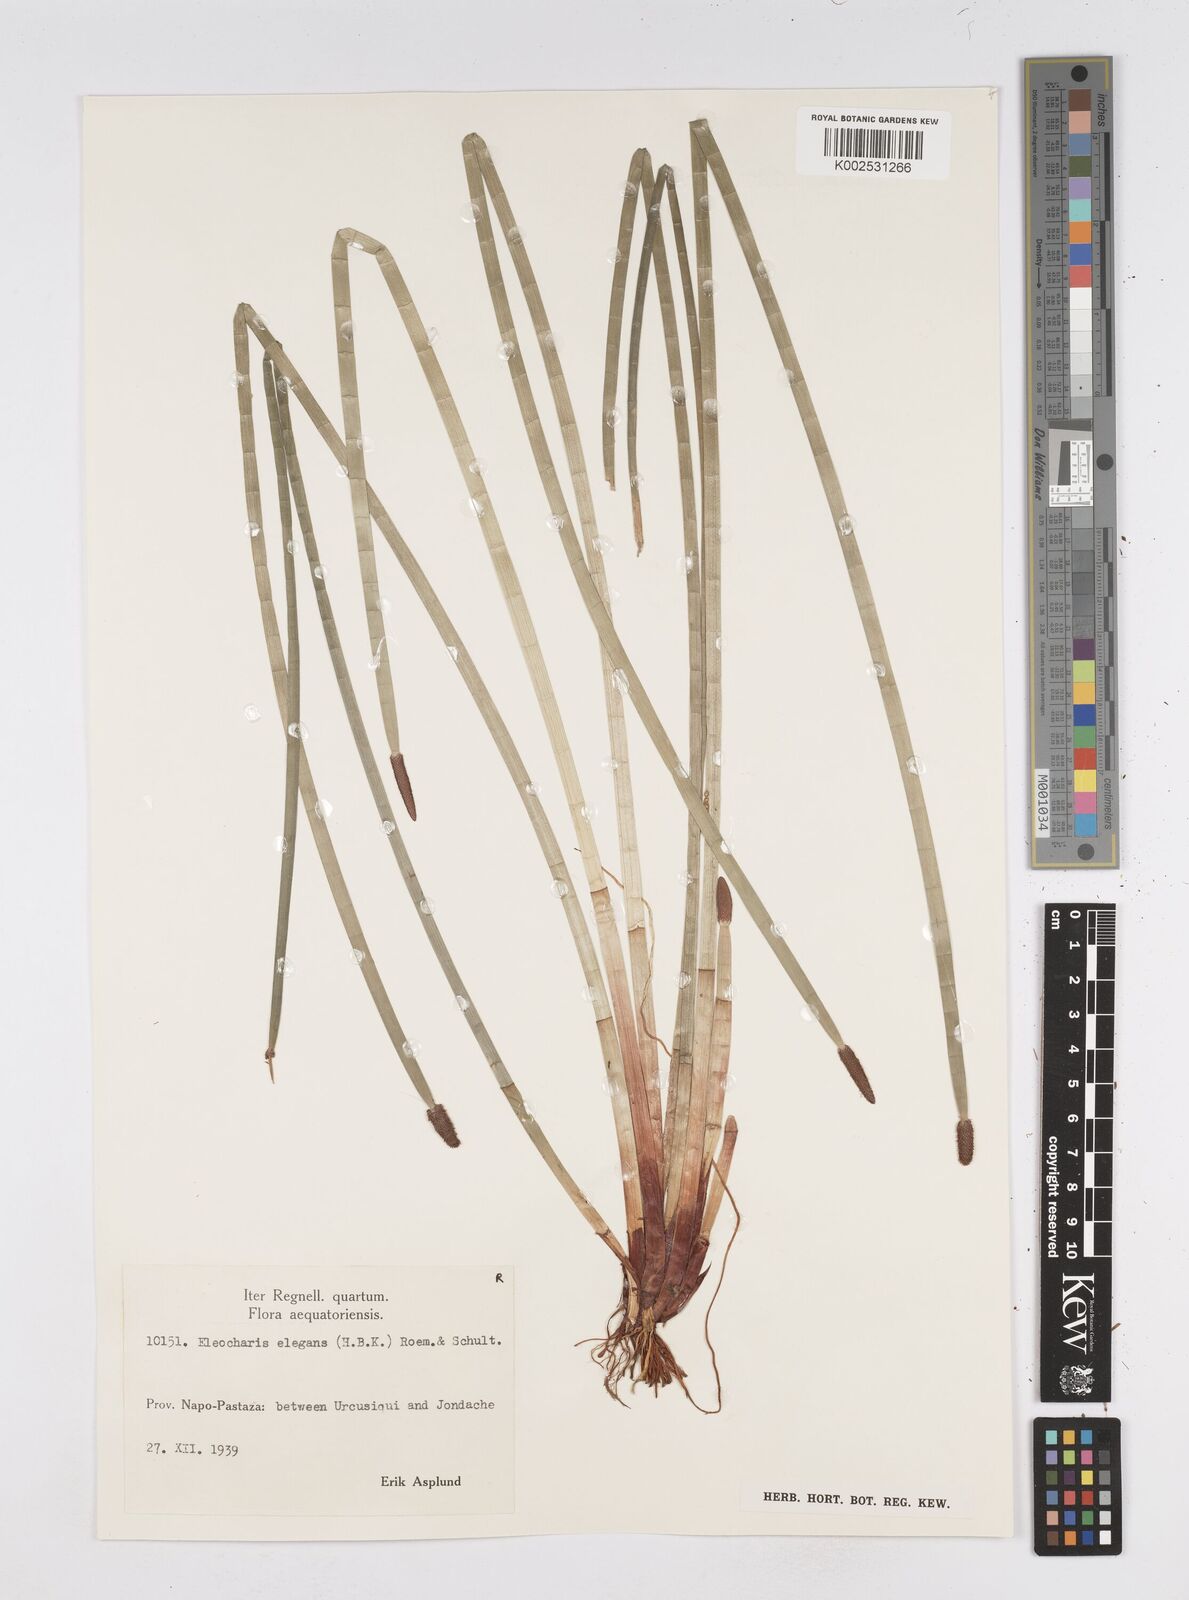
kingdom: Plantae
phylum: Tracheophyta
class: Liliopsida
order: Poales
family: Cyperaceae
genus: Eleocharis
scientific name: Eleocharis elegans
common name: Elegant spike-rush
